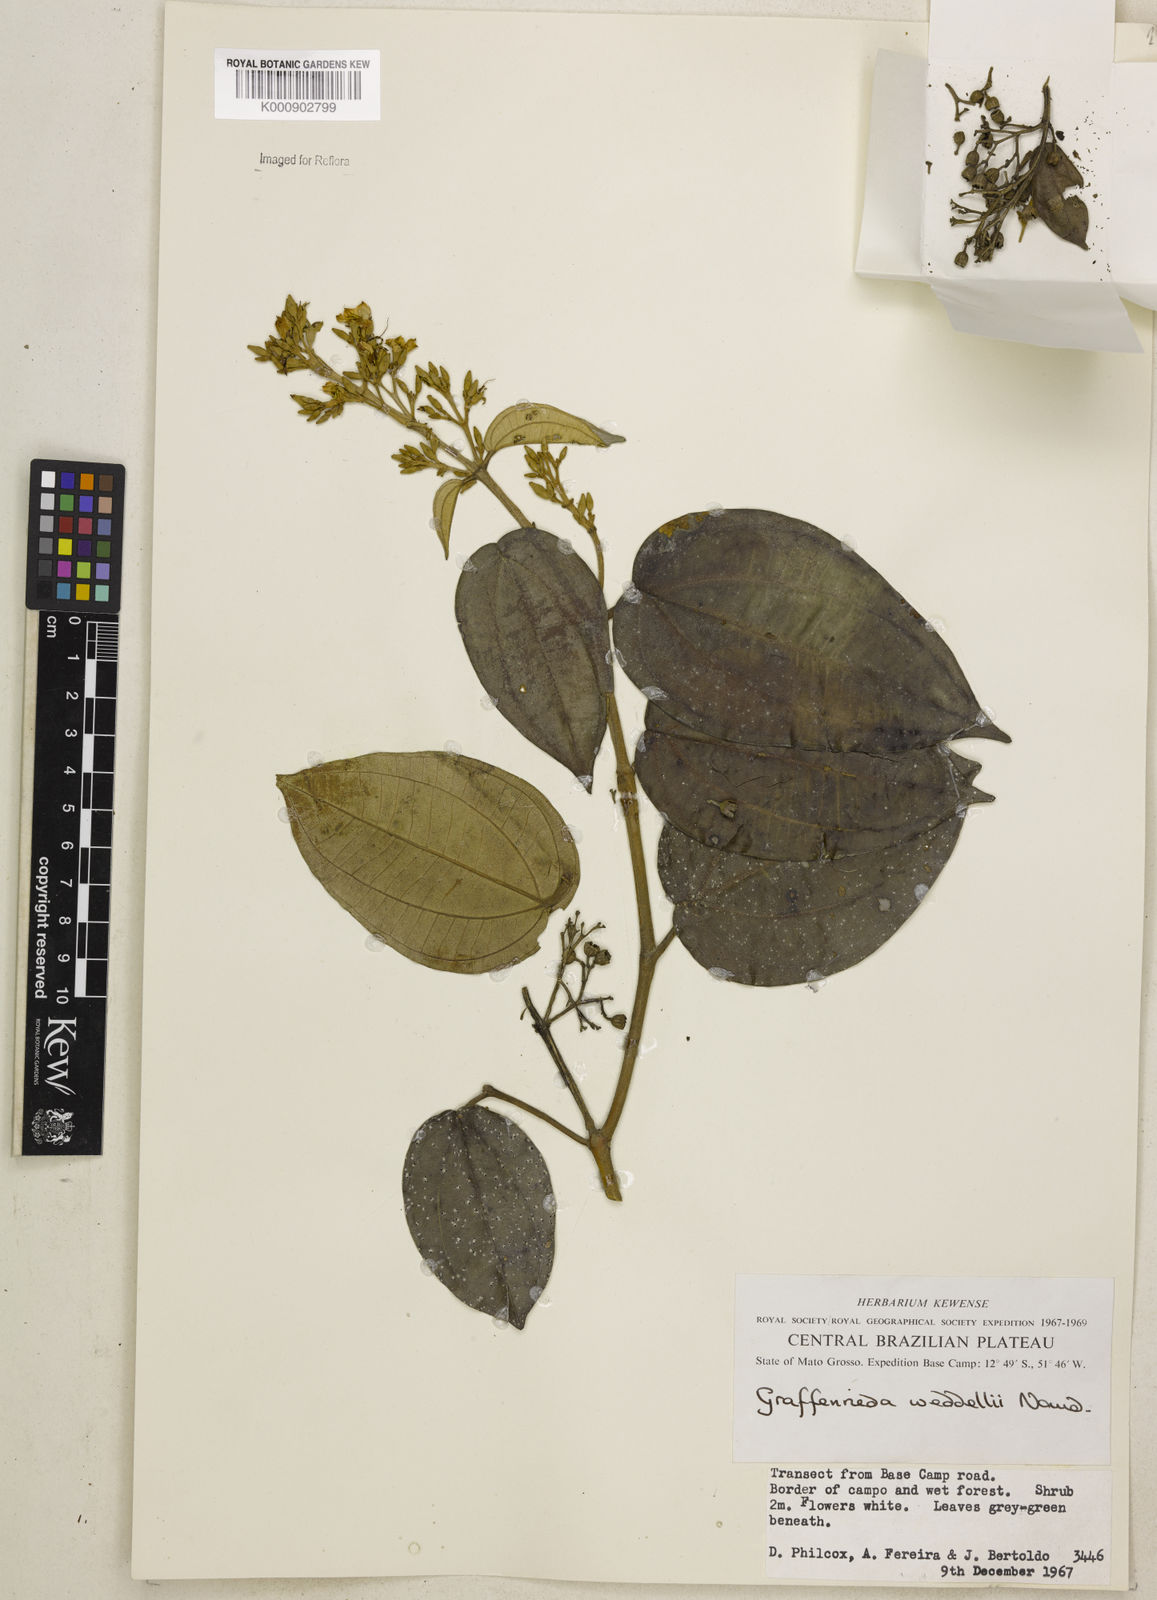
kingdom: Plantae
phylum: Tracheophyta
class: Magnoliopsida
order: Myrtales
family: Melastomataceae
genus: Graffenrieda
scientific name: Graffenrieda weddellii
